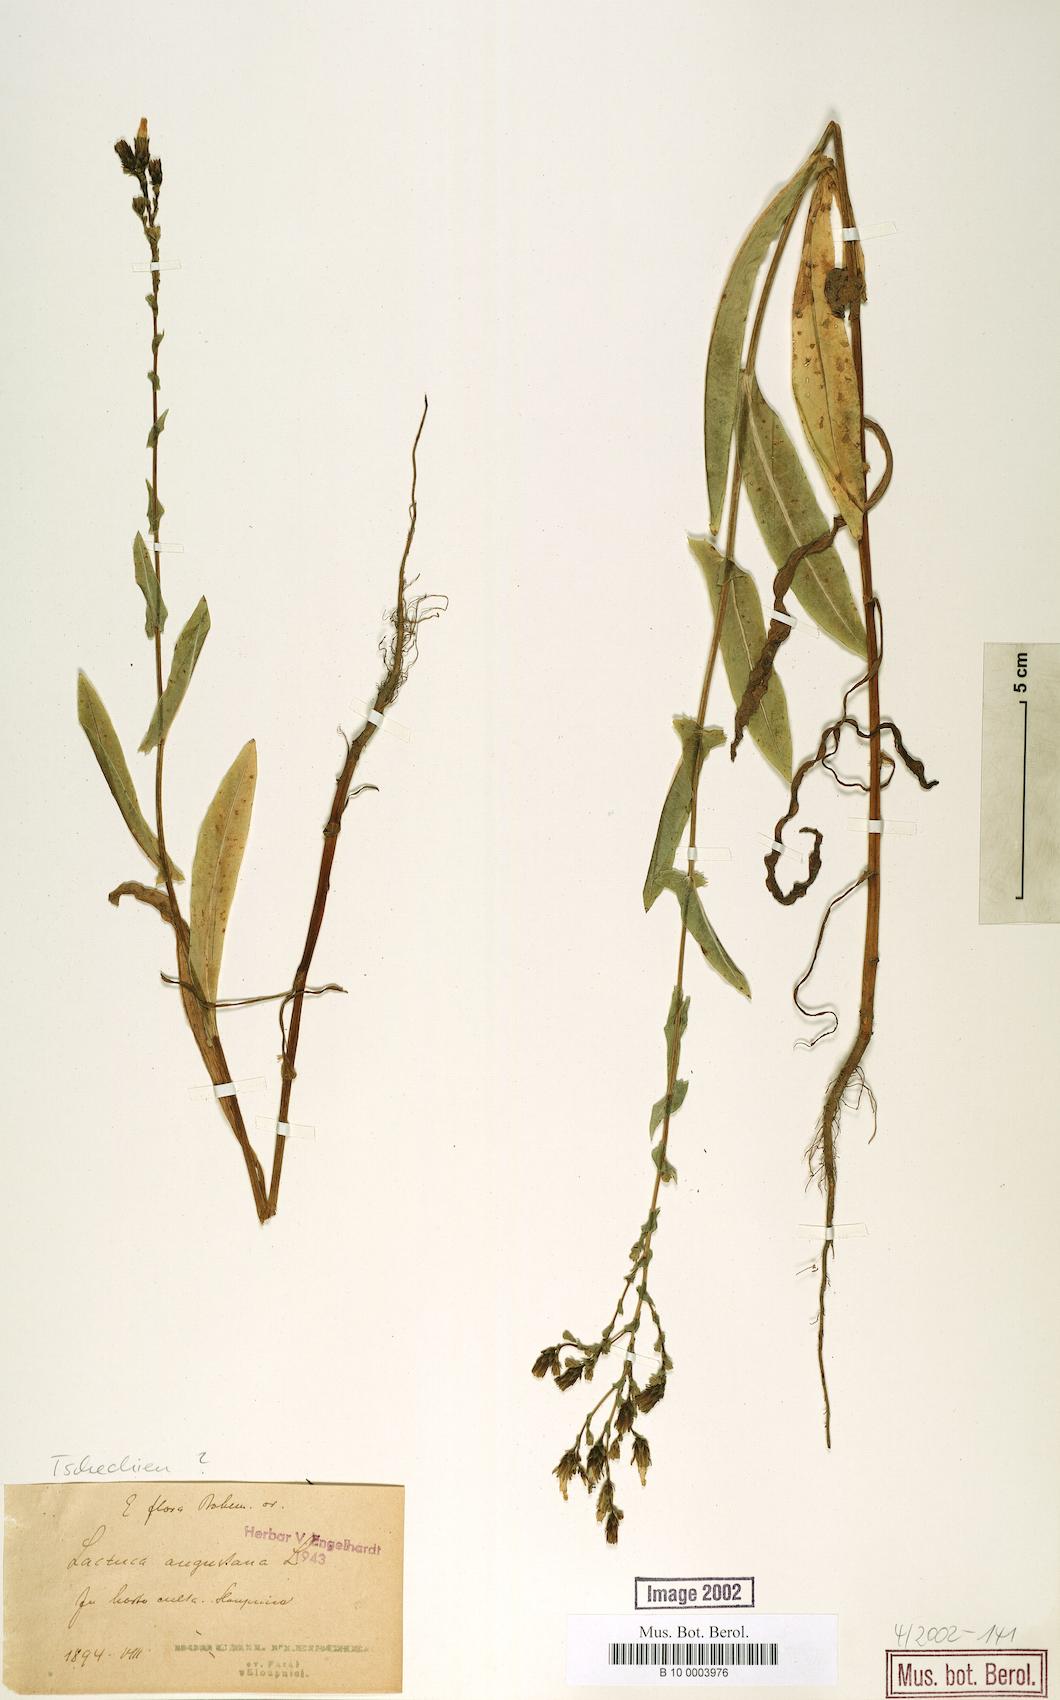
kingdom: Plantae
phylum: Tracheophyta
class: Magnoliopsida
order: Asterales
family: Asteraceae
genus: Lactuca
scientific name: Lactuca serriola
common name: Prickly lettuce
